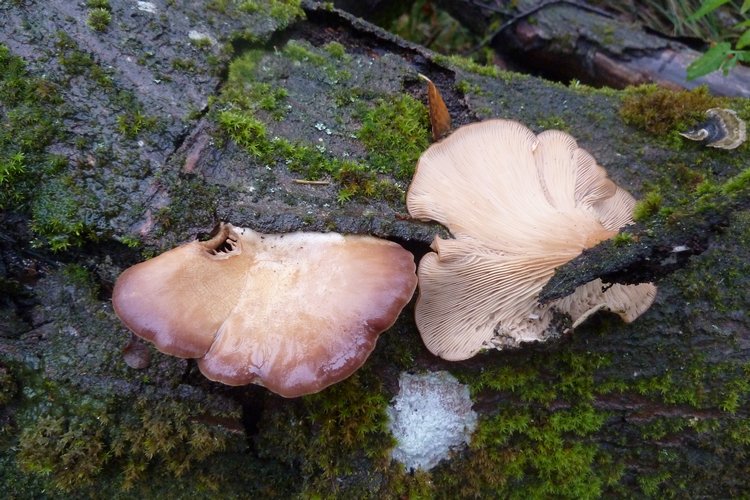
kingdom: Fungi
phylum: Basidiomycota
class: Agaricomycetes
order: Polyporales
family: Panaceae
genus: Panus
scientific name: Panus conchatus
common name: filtstokket læderhat
